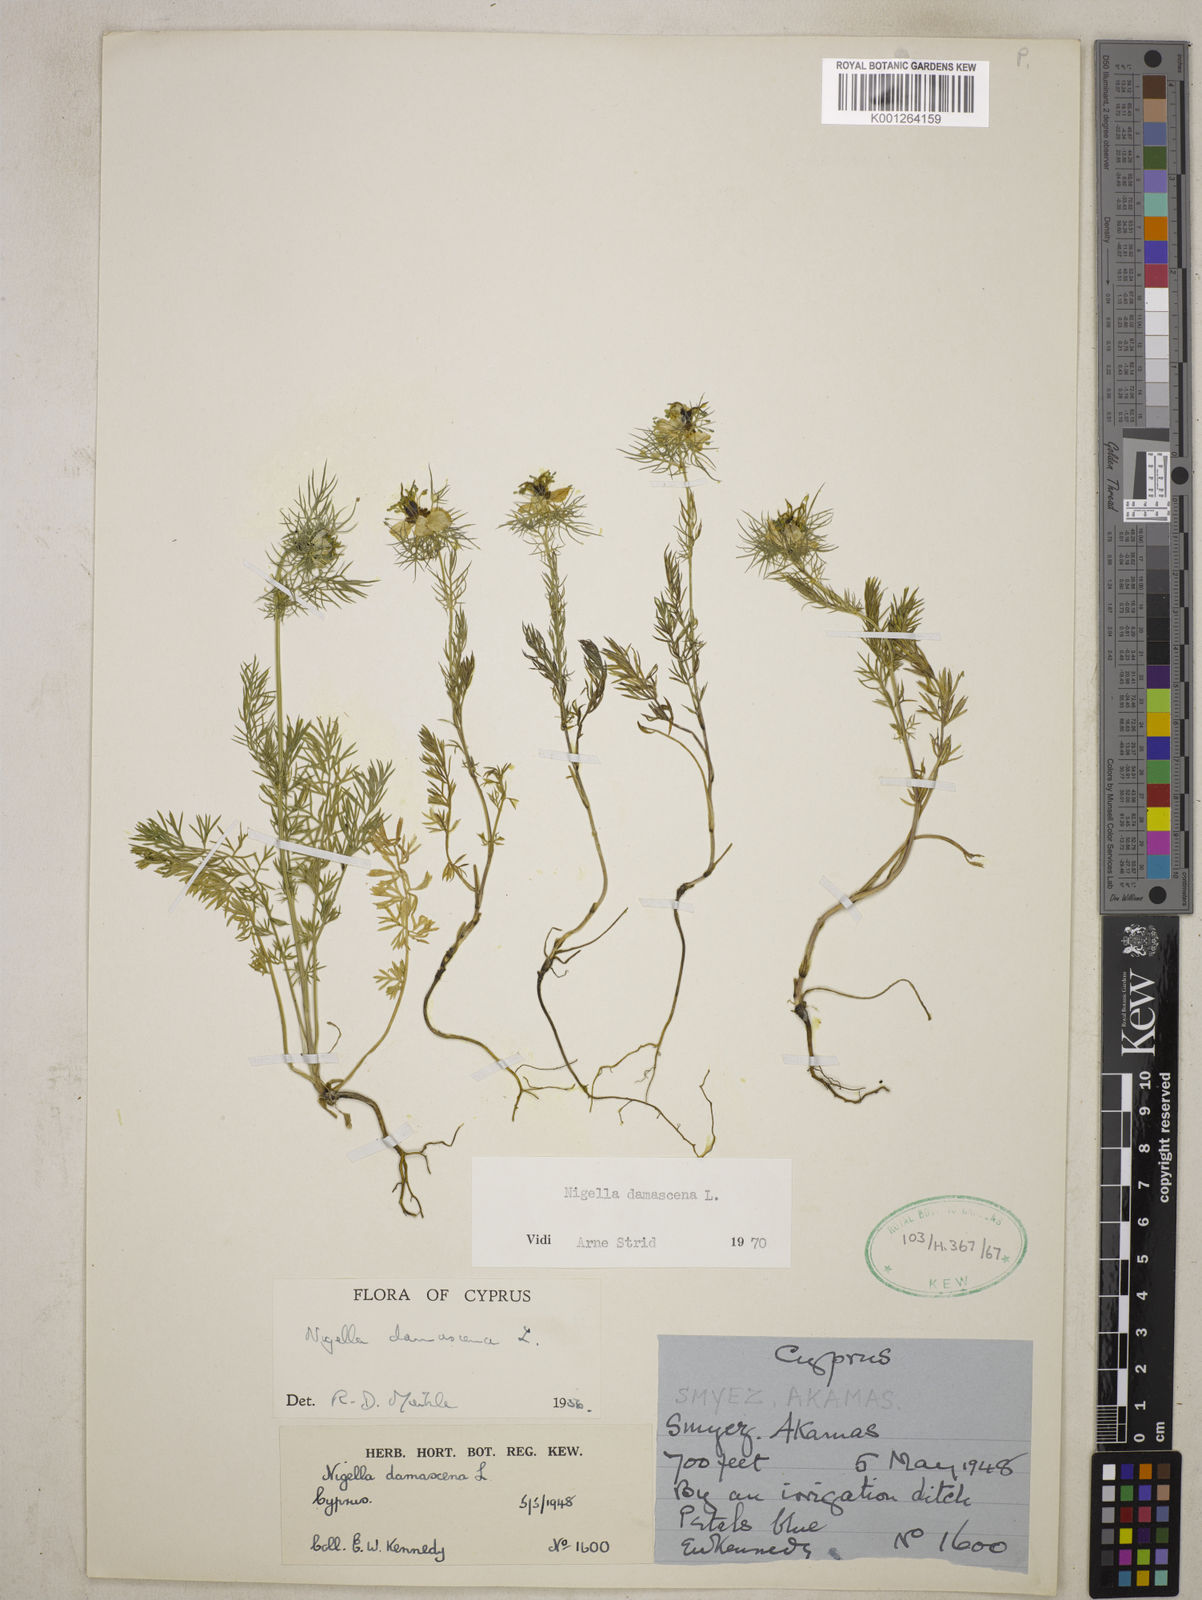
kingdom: Plantae
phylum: Tracheophyta
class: Magnoliopsida
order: Ranunculales
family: Ranunculaceae
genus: Nigella
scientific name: Nigella damascena
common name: Love-in-a-mist
